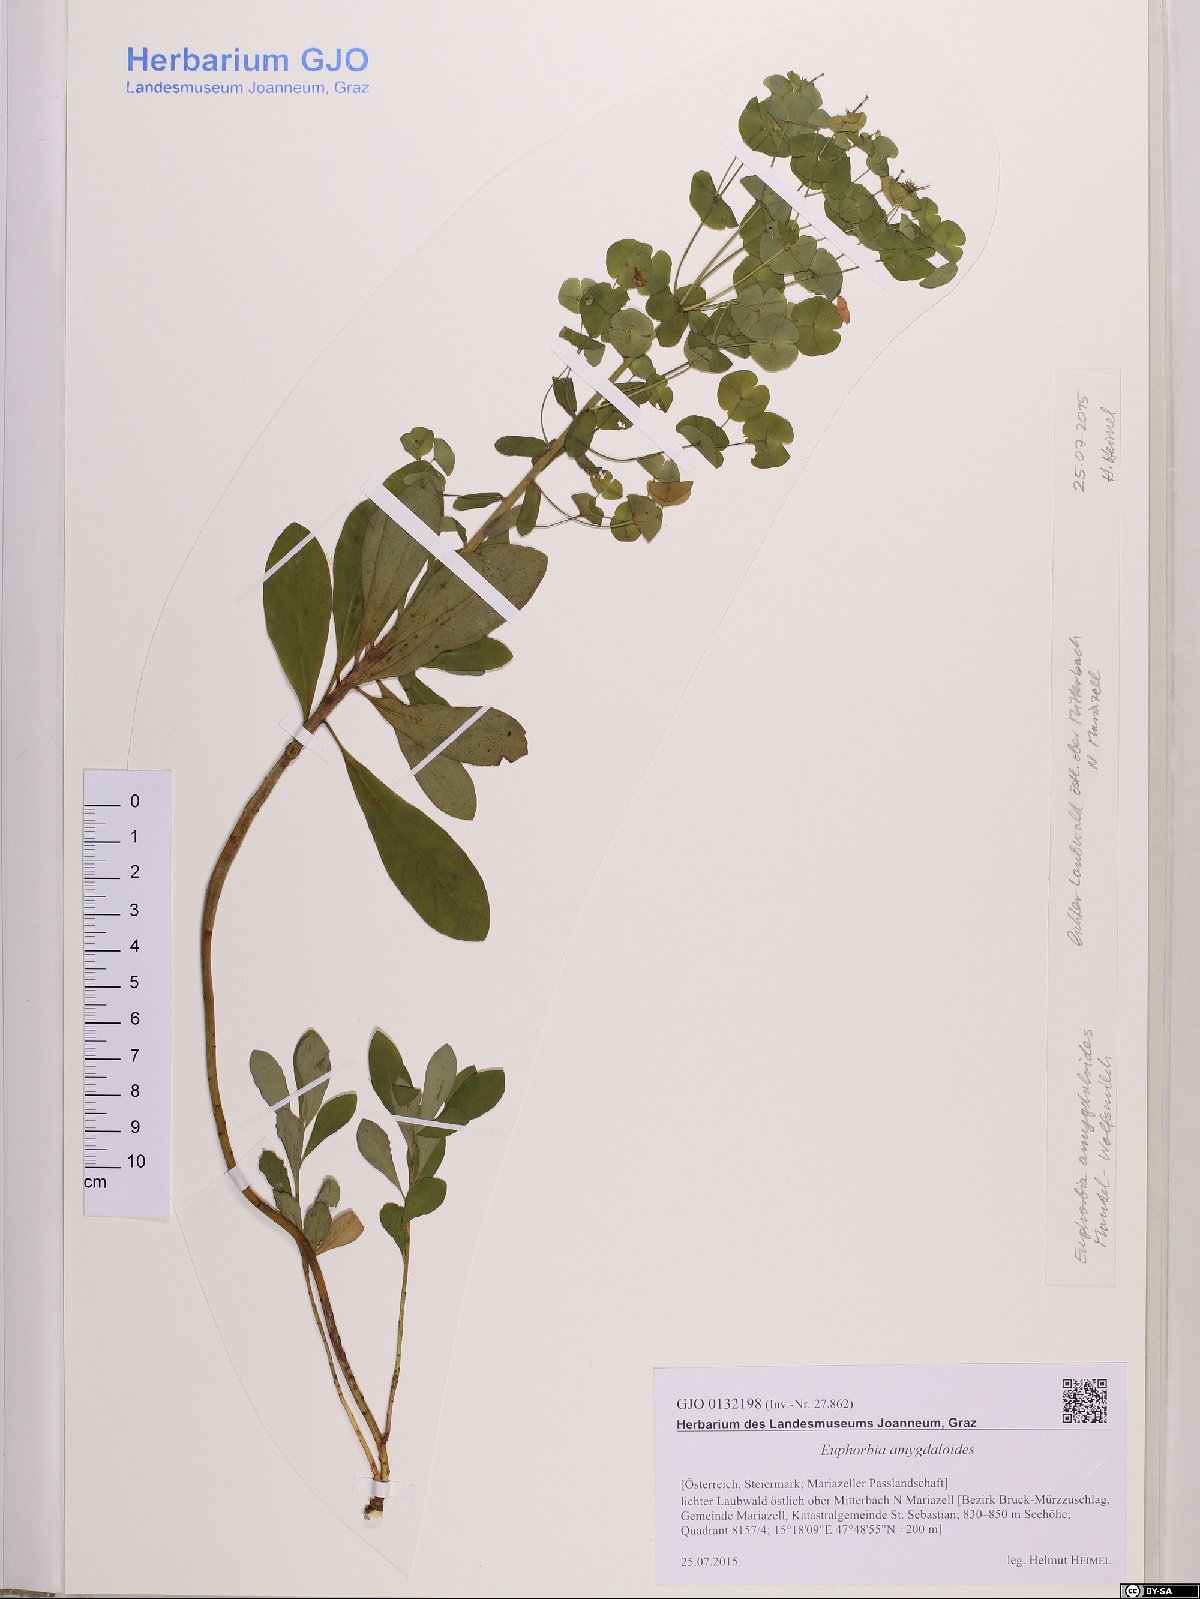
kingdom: Plantae
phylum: Tracheophyta
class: Magnoliopsida
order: Malpighiales
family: Euphorbiaceae
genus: Euphorbia
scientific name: Euphorbia amygdaloides
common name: Wood spurge
